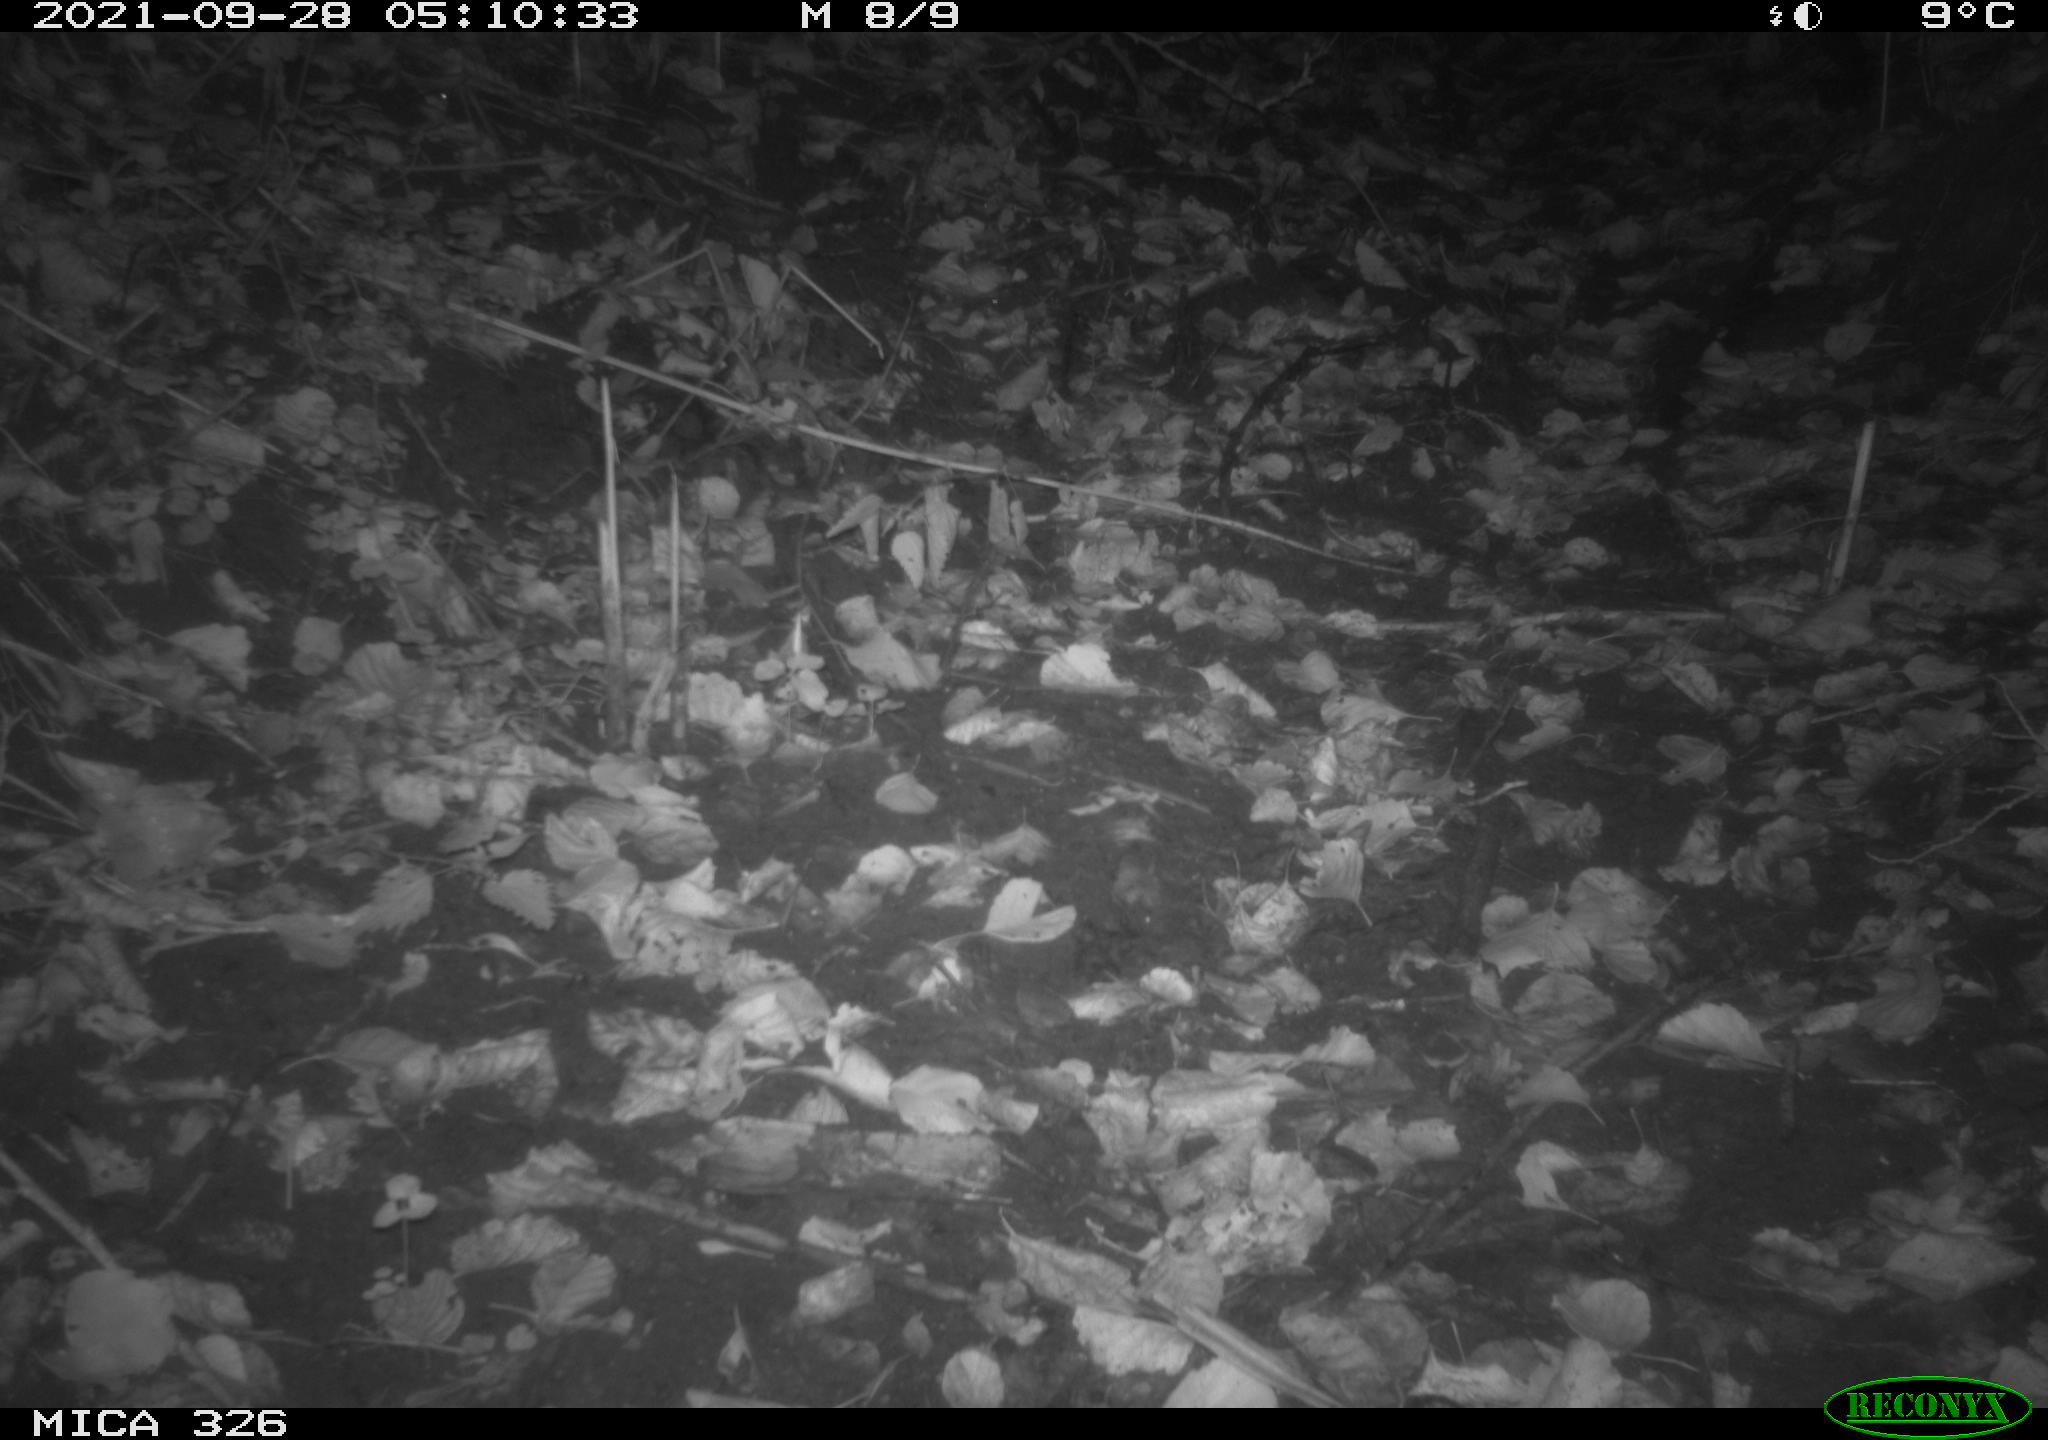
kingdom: Animalia
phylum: Chordata
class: Mammalia
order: Carnivora
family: Mustelidae
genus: Lutra
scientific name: Lutra lutra
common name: European otter
